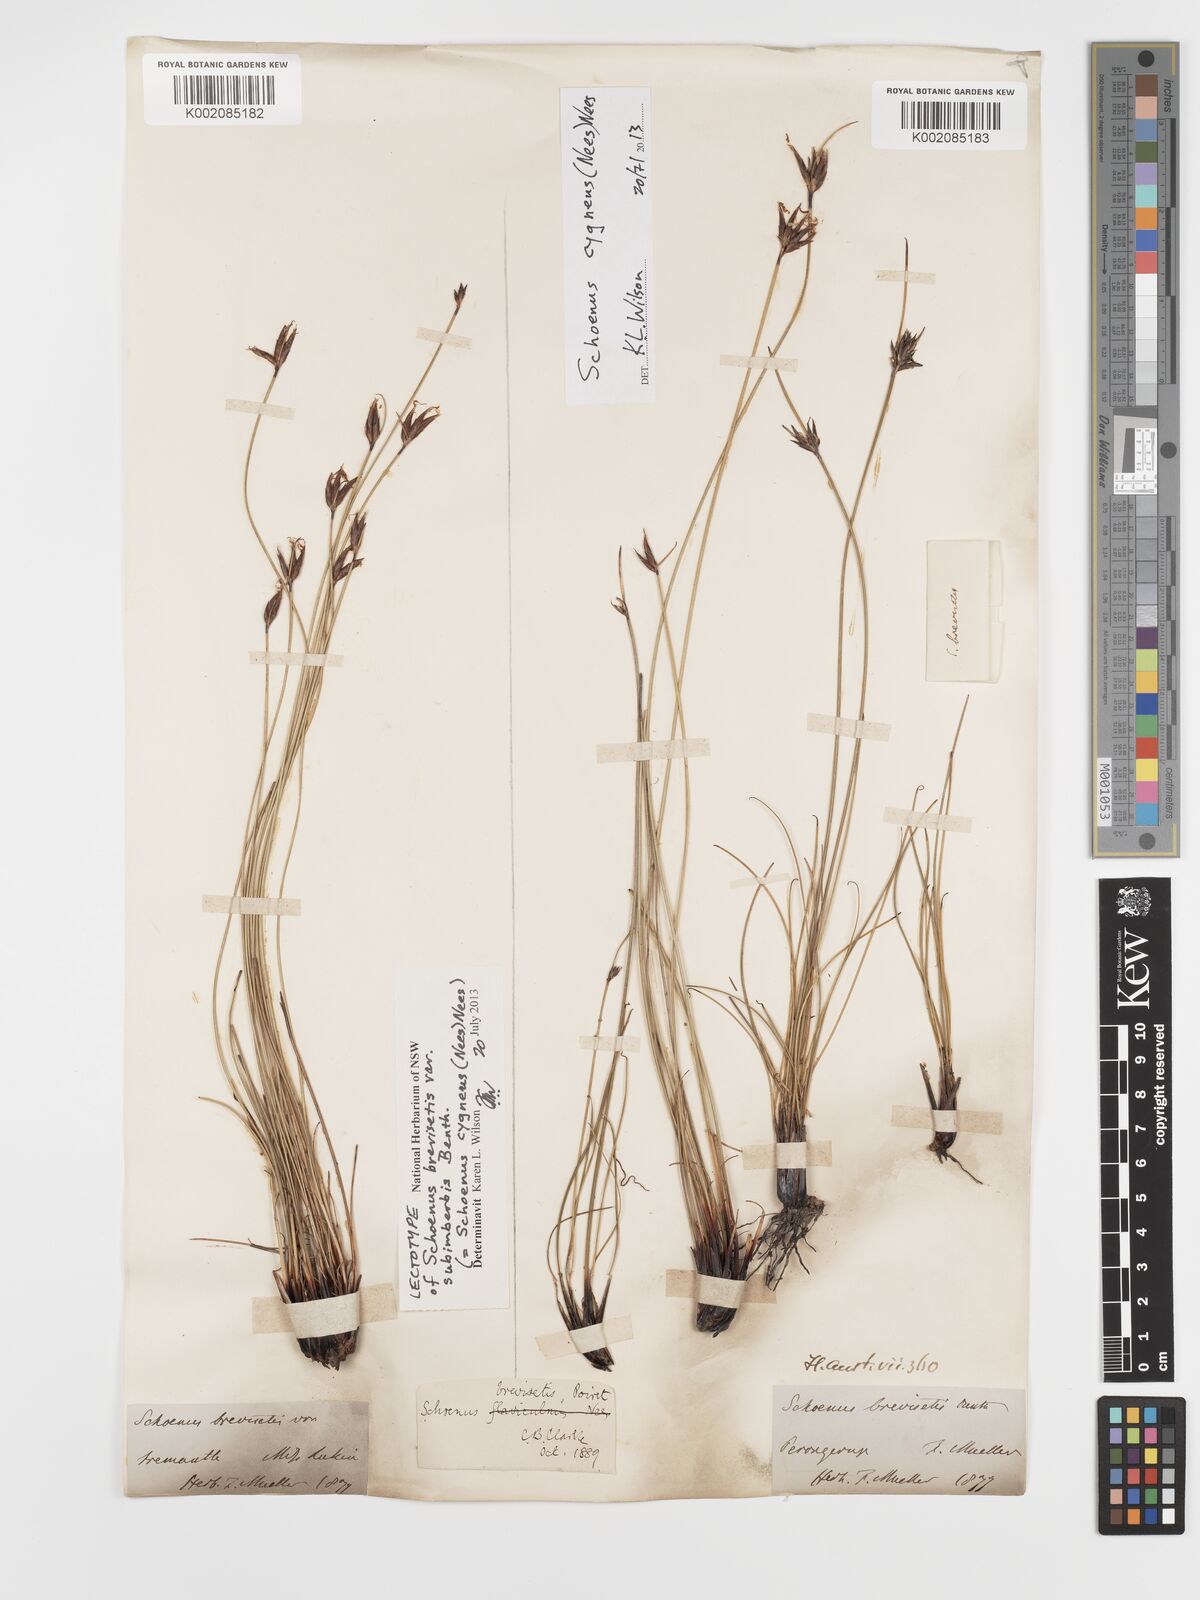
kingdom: Plantae
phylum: Tracheophyta
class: Liliopsida
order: Poales
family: Cyperaceae
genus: Schoenus
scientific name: Schoenus cygneus
